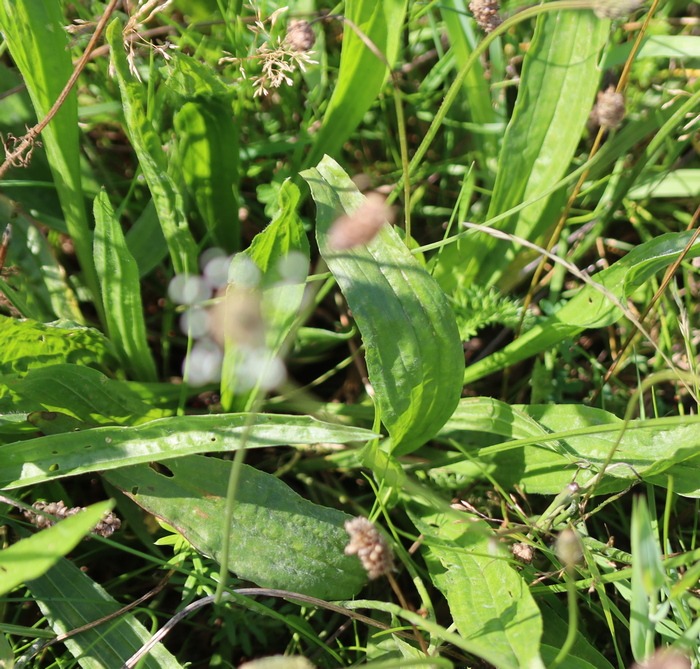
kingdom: Plantae
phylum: Tracheophyta
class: Magnoliopsida
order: Lamiales
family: Plantaginaceae
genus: Plantago
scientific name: Plantago lanceolata
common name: Lancet-vejbred
